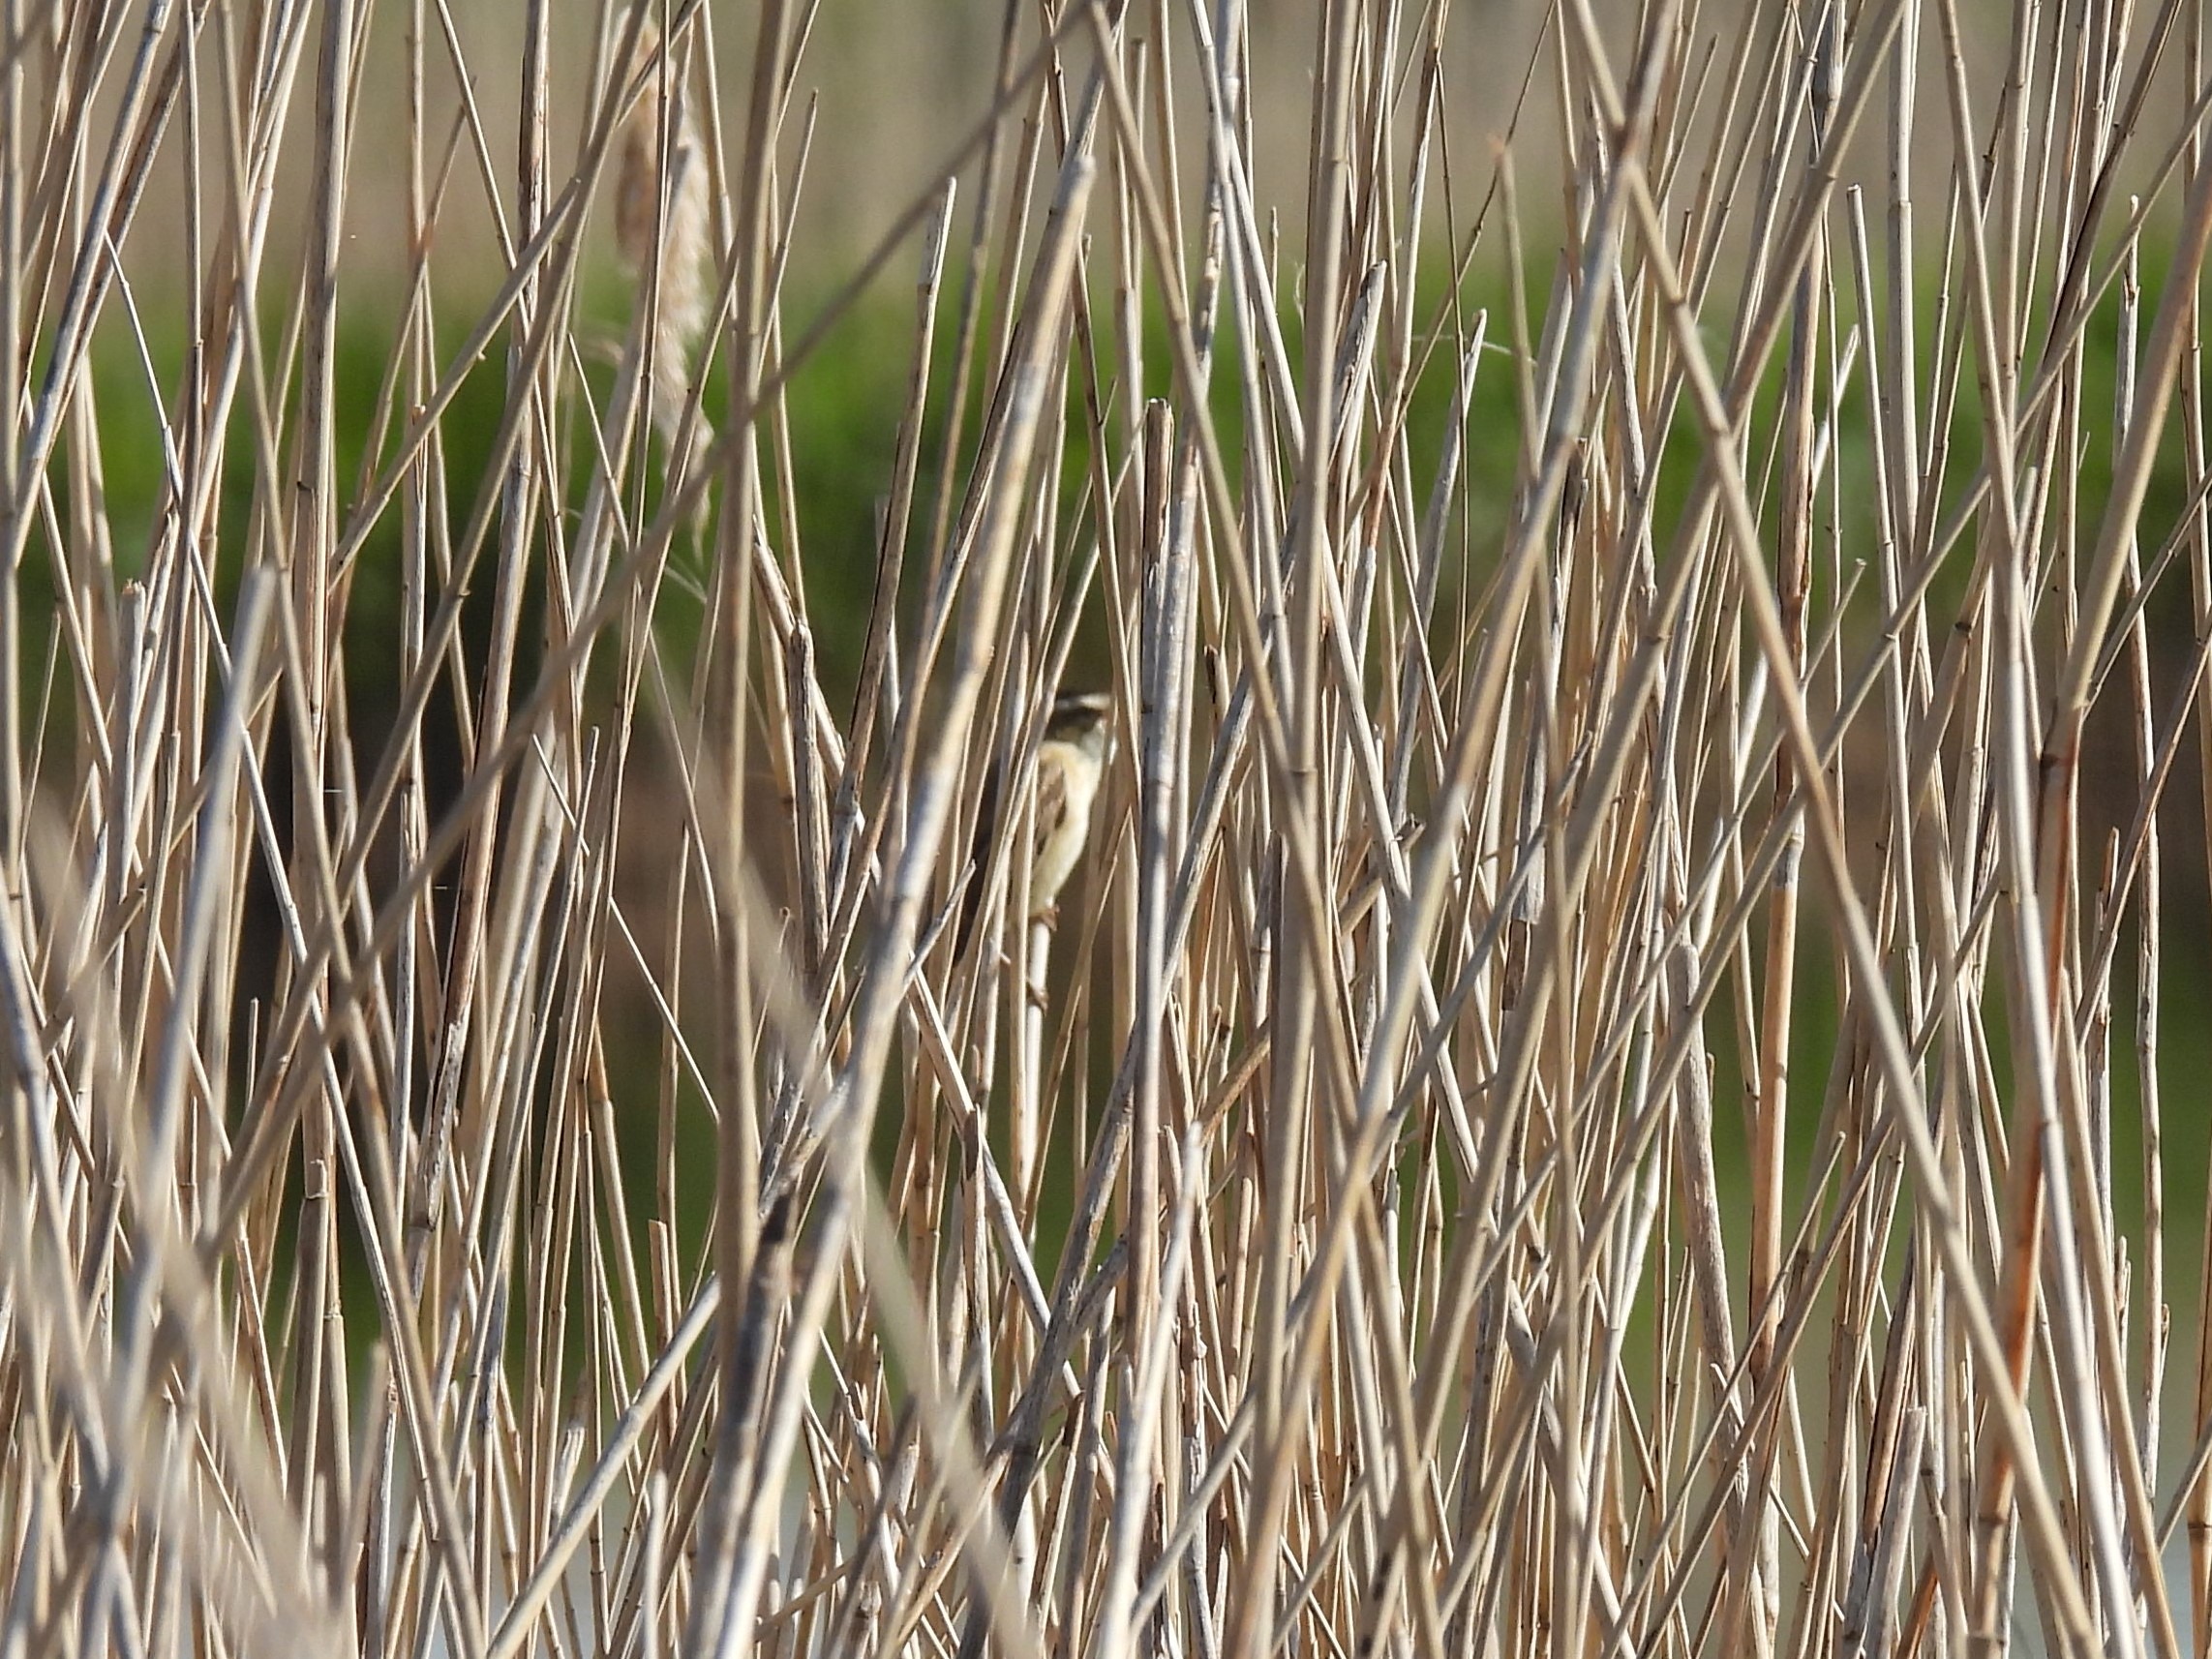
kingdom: Animalia
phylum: Chordata
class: Aves
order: Passeriformes
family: Acrocephalidae
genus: Acrocephalus
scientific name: Acrocephalus schoenobaenus
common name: Sivsanger
